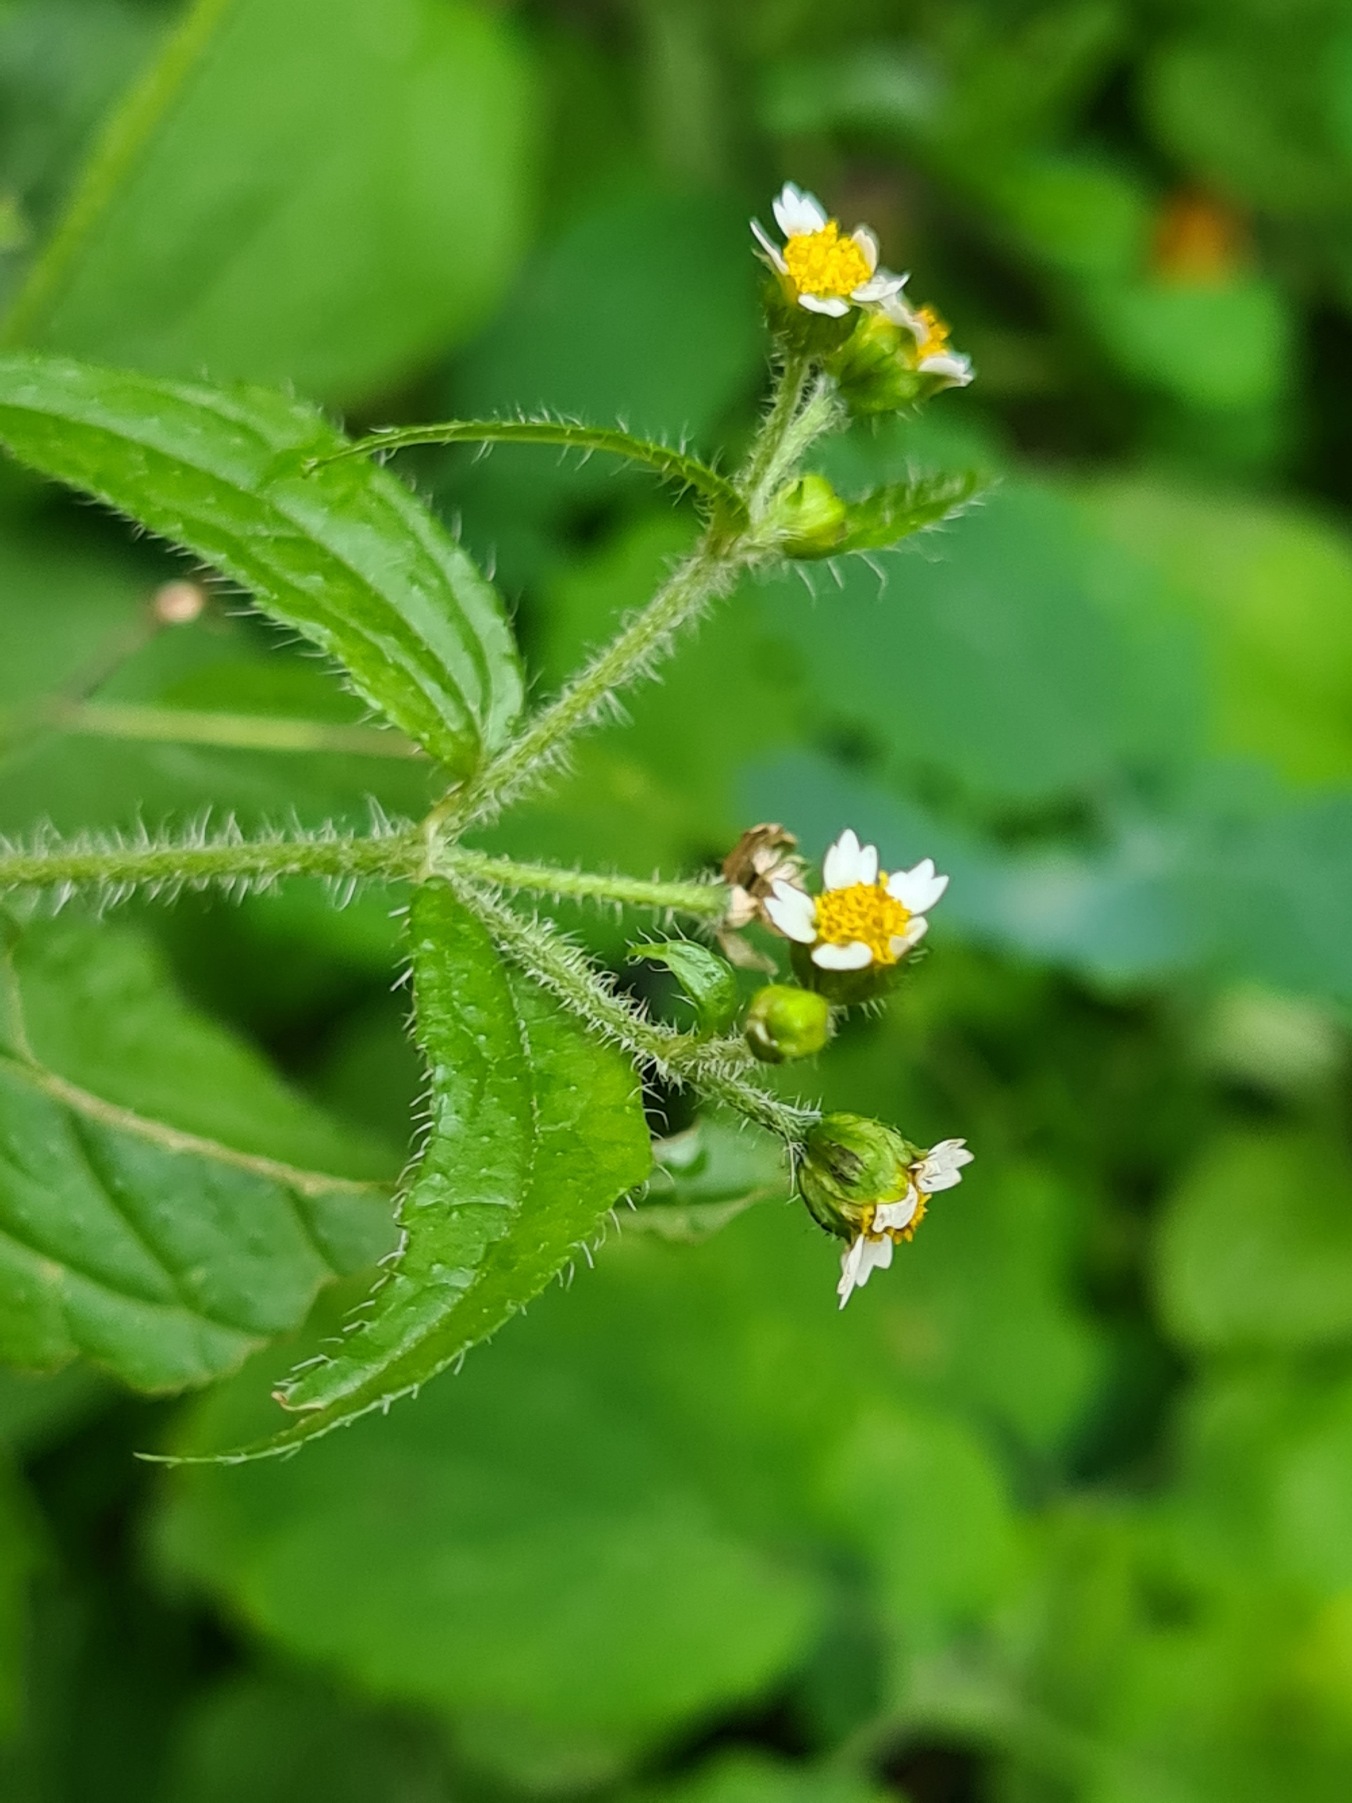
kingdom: Plantae
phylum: Tracheophyta
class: Magnoliopsida
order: Asterales
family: Asteraceae
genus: Galinsoga
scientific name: Galinsoga quadriradiata
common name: Kirtel-kortstråle
